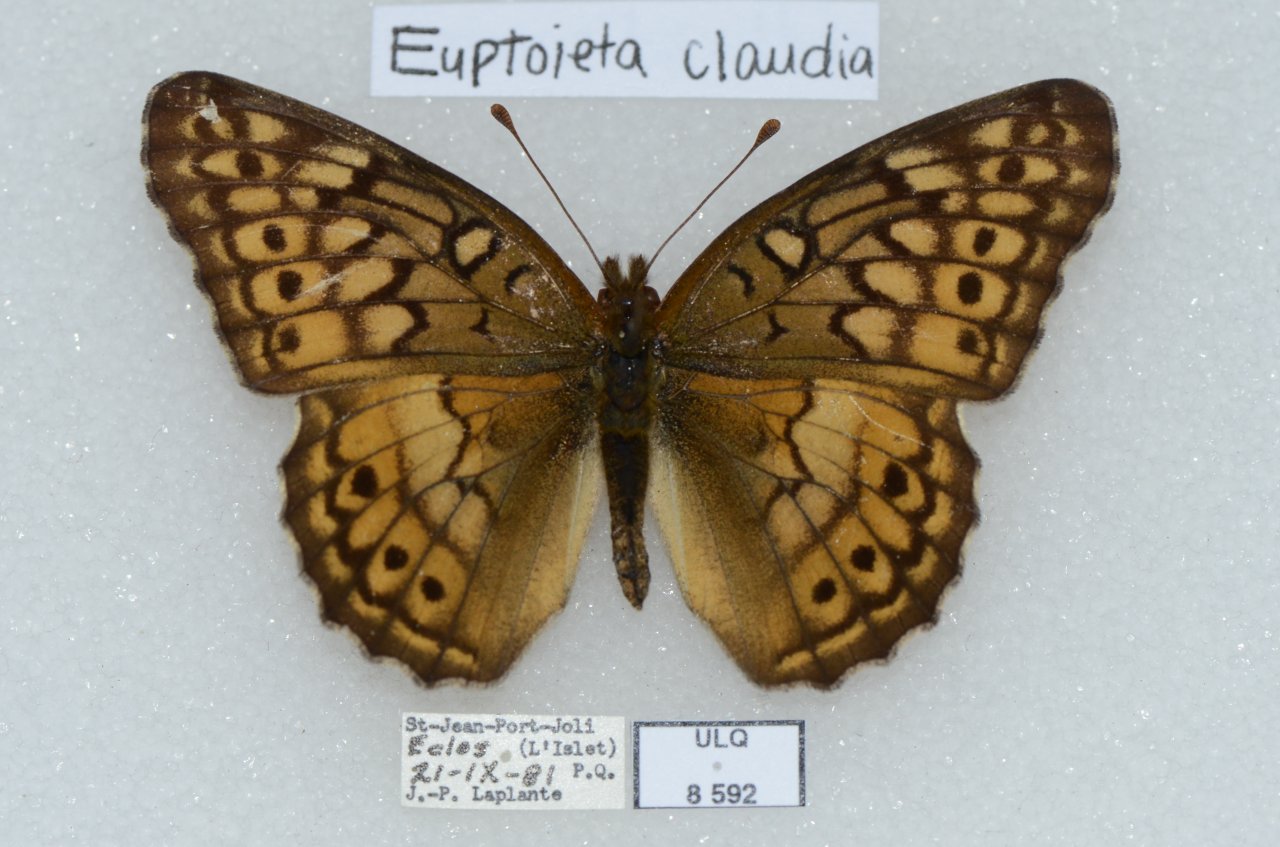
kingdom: Animalia
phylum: Arthropoda
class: Insecta
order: Lepidoptera
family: Nymphalidae
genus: Euptoieta
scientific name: Euptoieta claudia
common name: Variegated Fritillary
